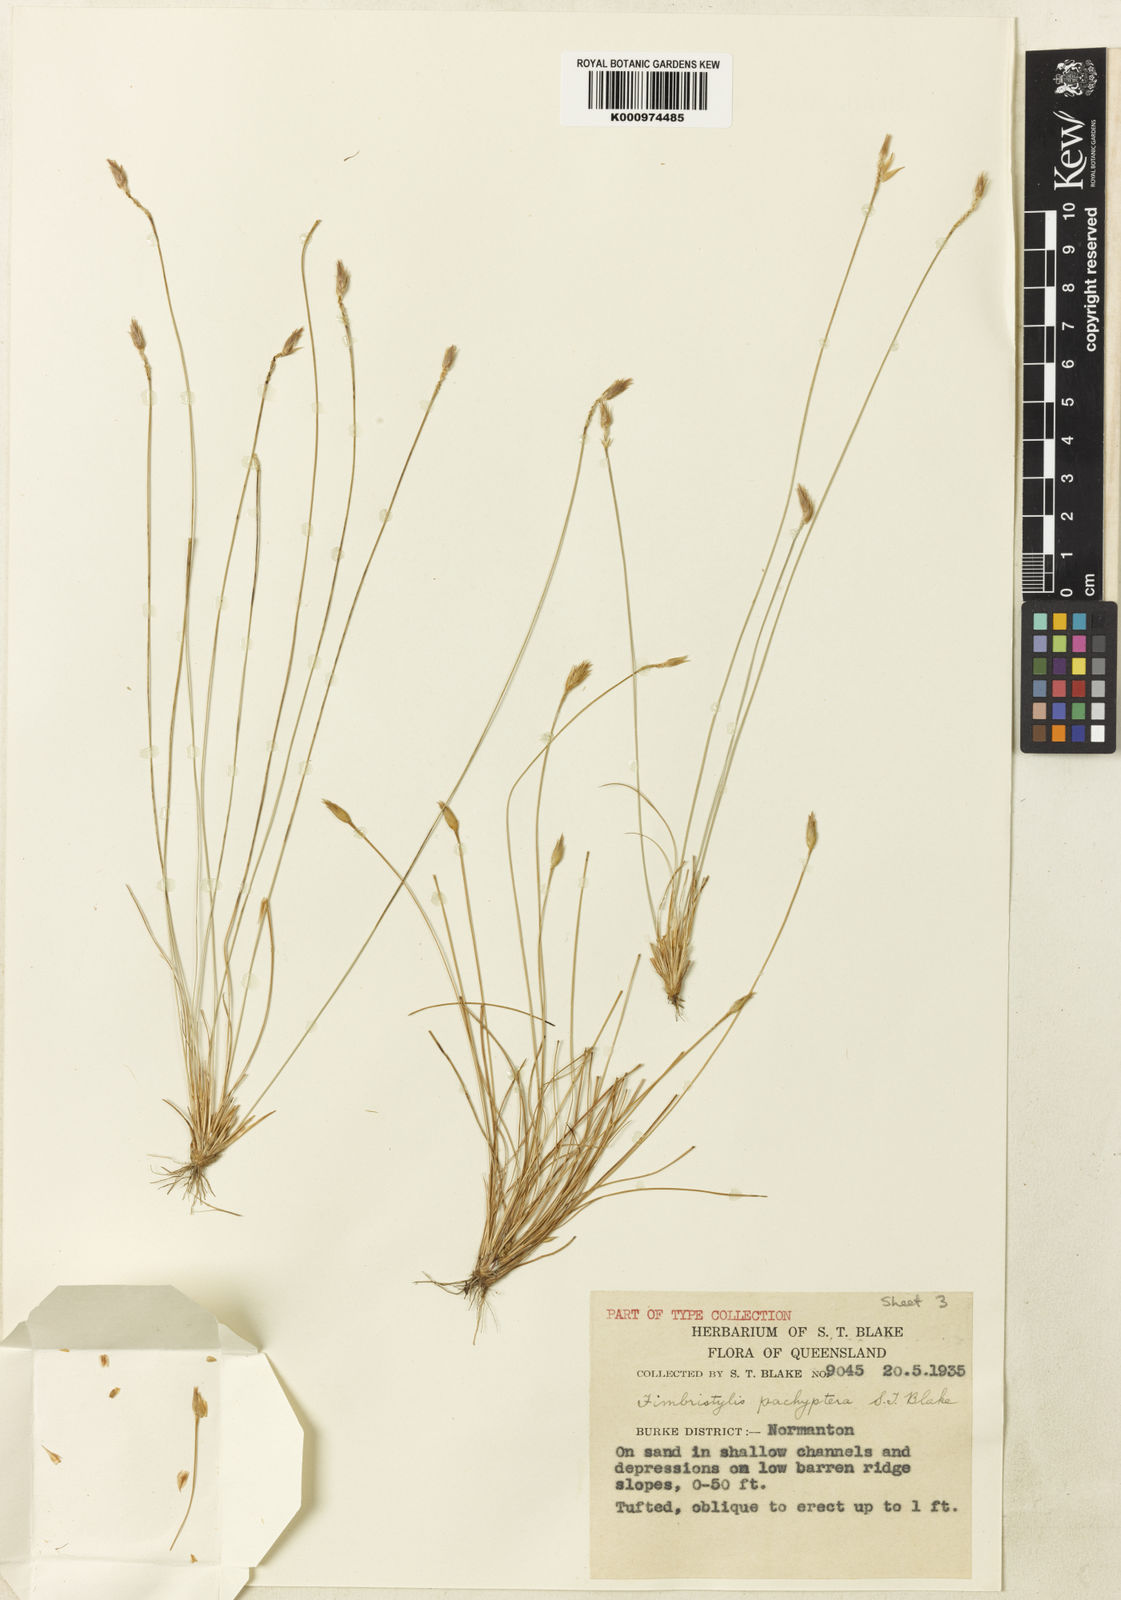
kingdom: Plantae
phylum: Tracheophyta
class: Liliopsida
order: Poales
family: Cyperaceae
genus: Abildgaardia
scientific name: Abildgaardia pachyptera
